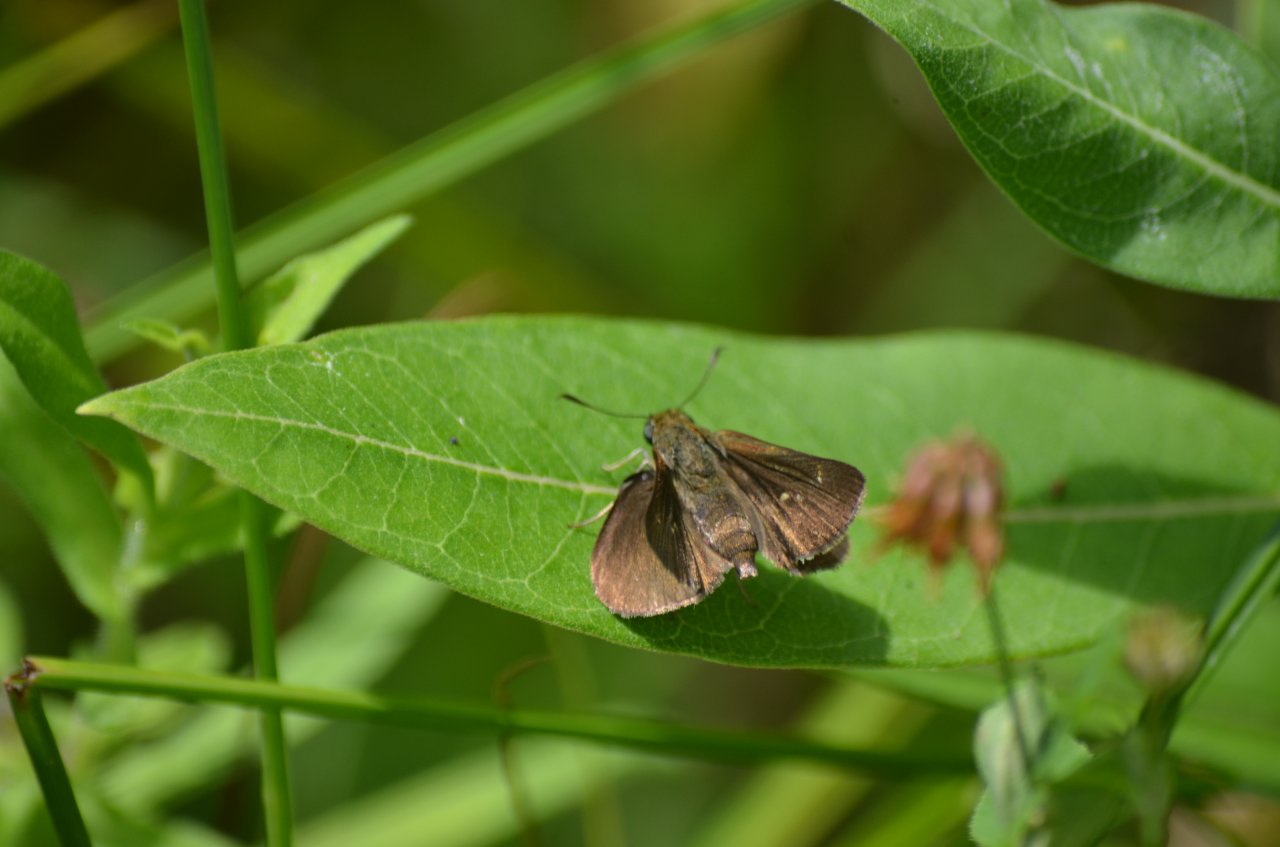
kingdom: Animalia
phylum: Arthropoda
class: Insecta
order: Lepidoptera
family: Hesperiidae
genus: Euphyes
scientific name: Euphyes vestris
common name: Dun Skipper
